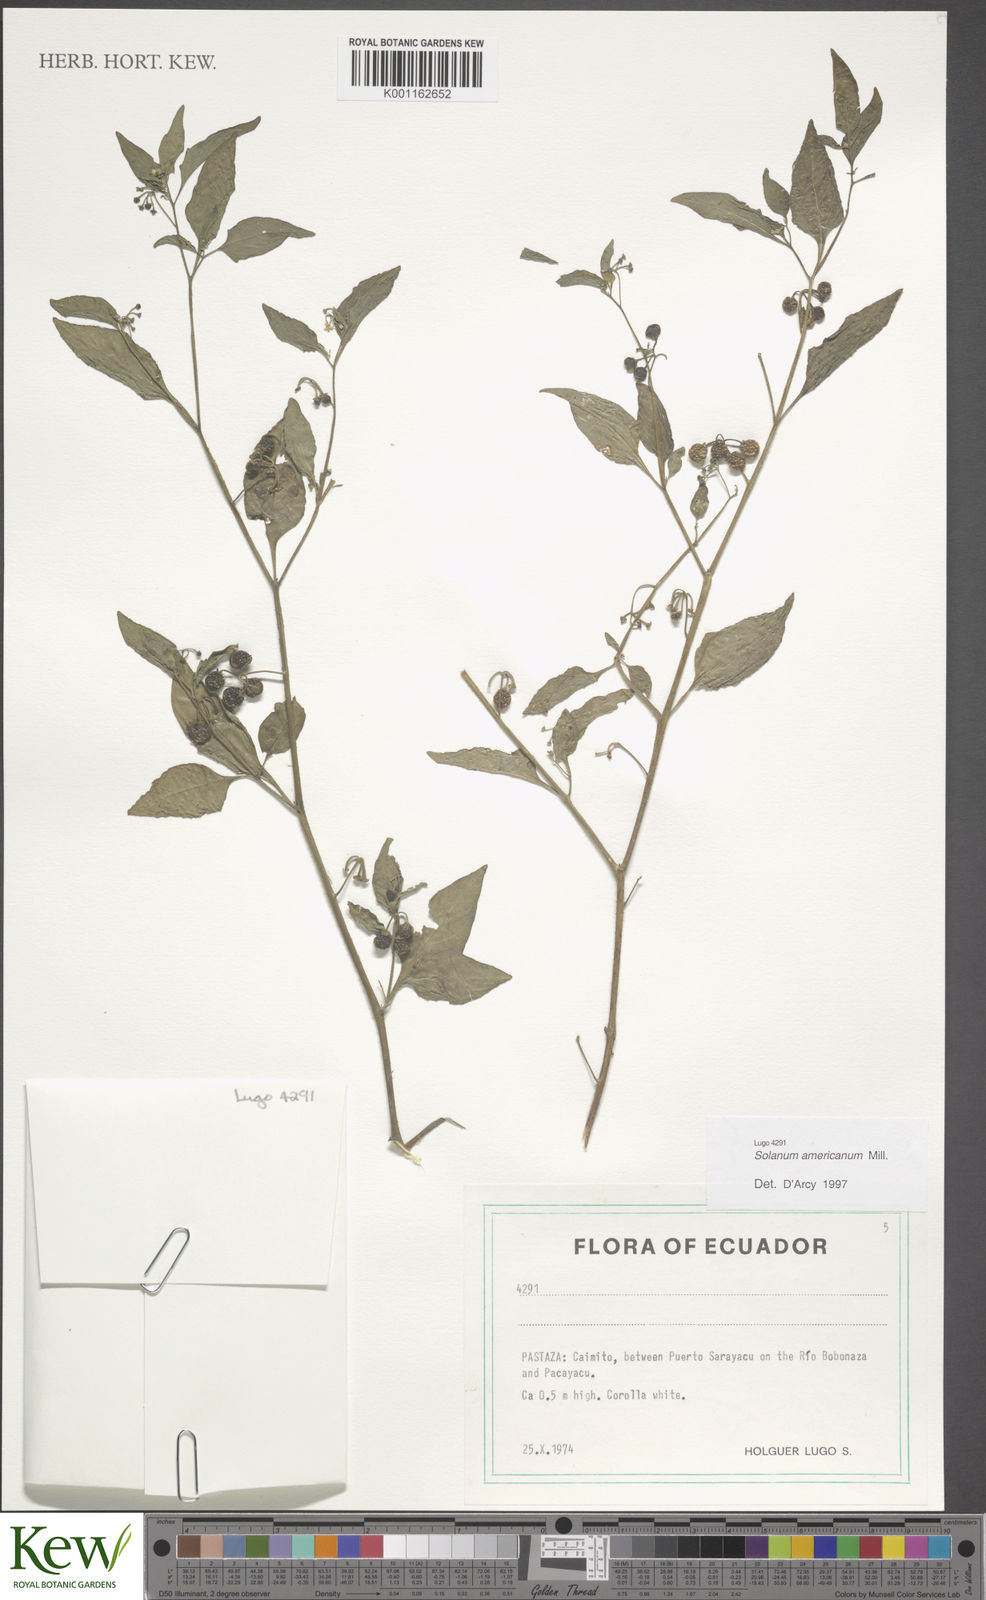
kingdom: Plantae
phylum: Tracheophyta
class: Magnoliopsida
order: Solanales
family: Solanaceae
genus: Solanum
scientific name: Solanum americanum
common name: American black nightshade
